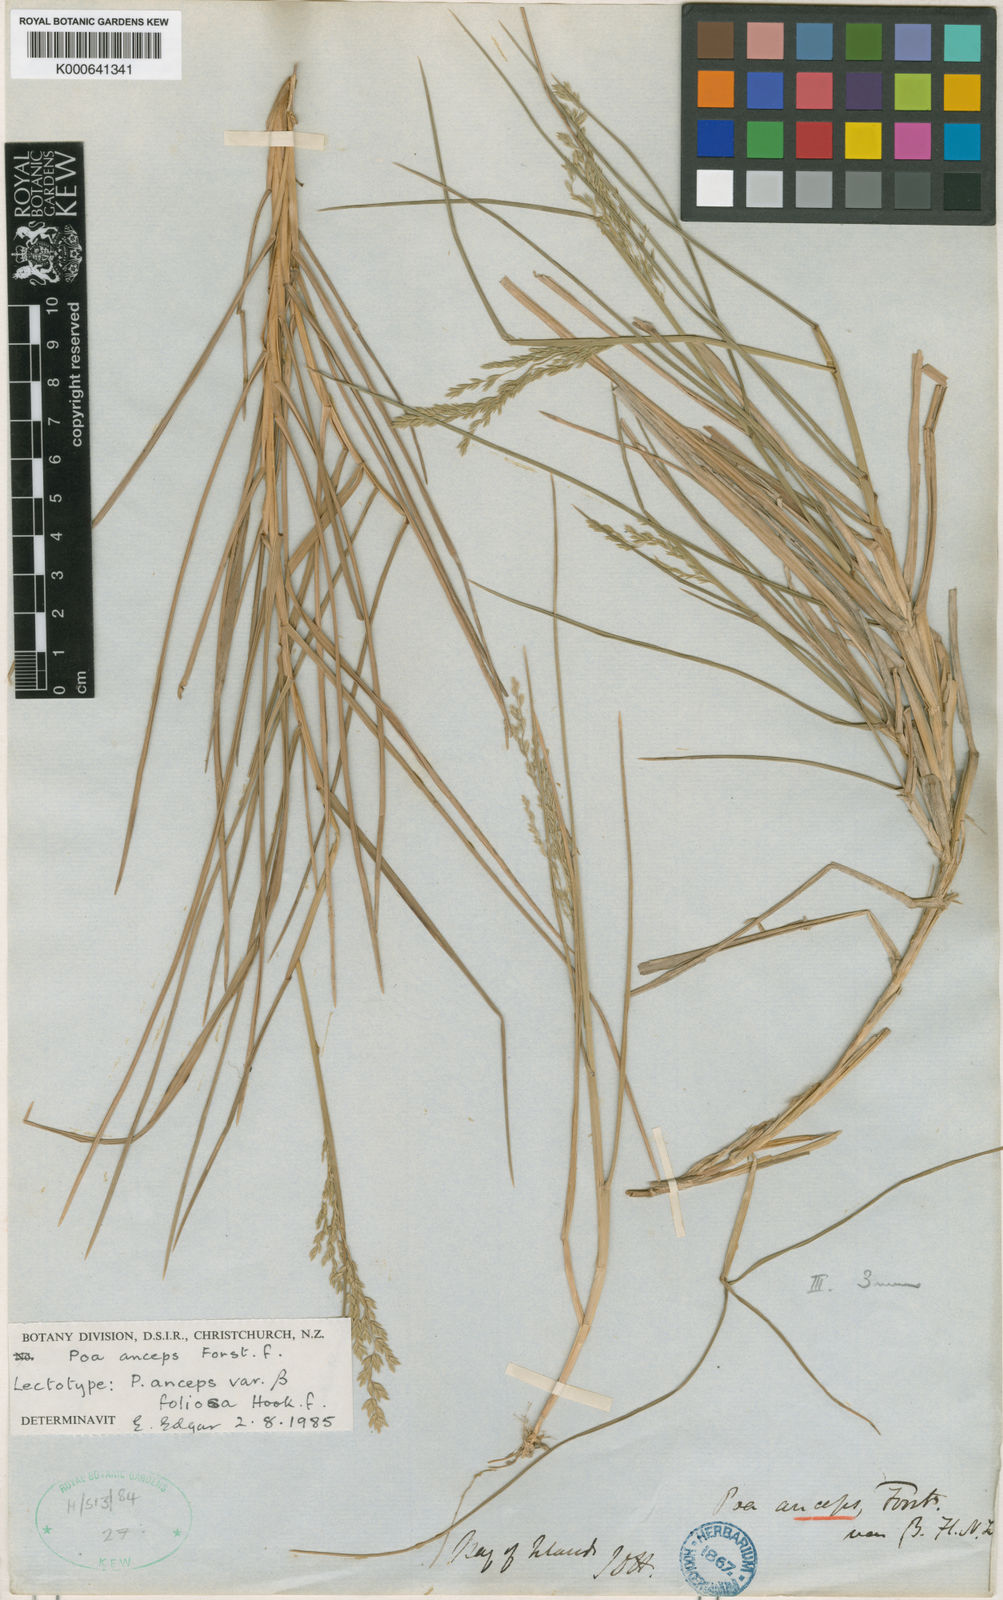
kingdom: Plantae
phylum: Tracheophyta
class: Liliopsida
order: Poales
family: Poaceae
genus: Poa
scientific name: Poa anceps
